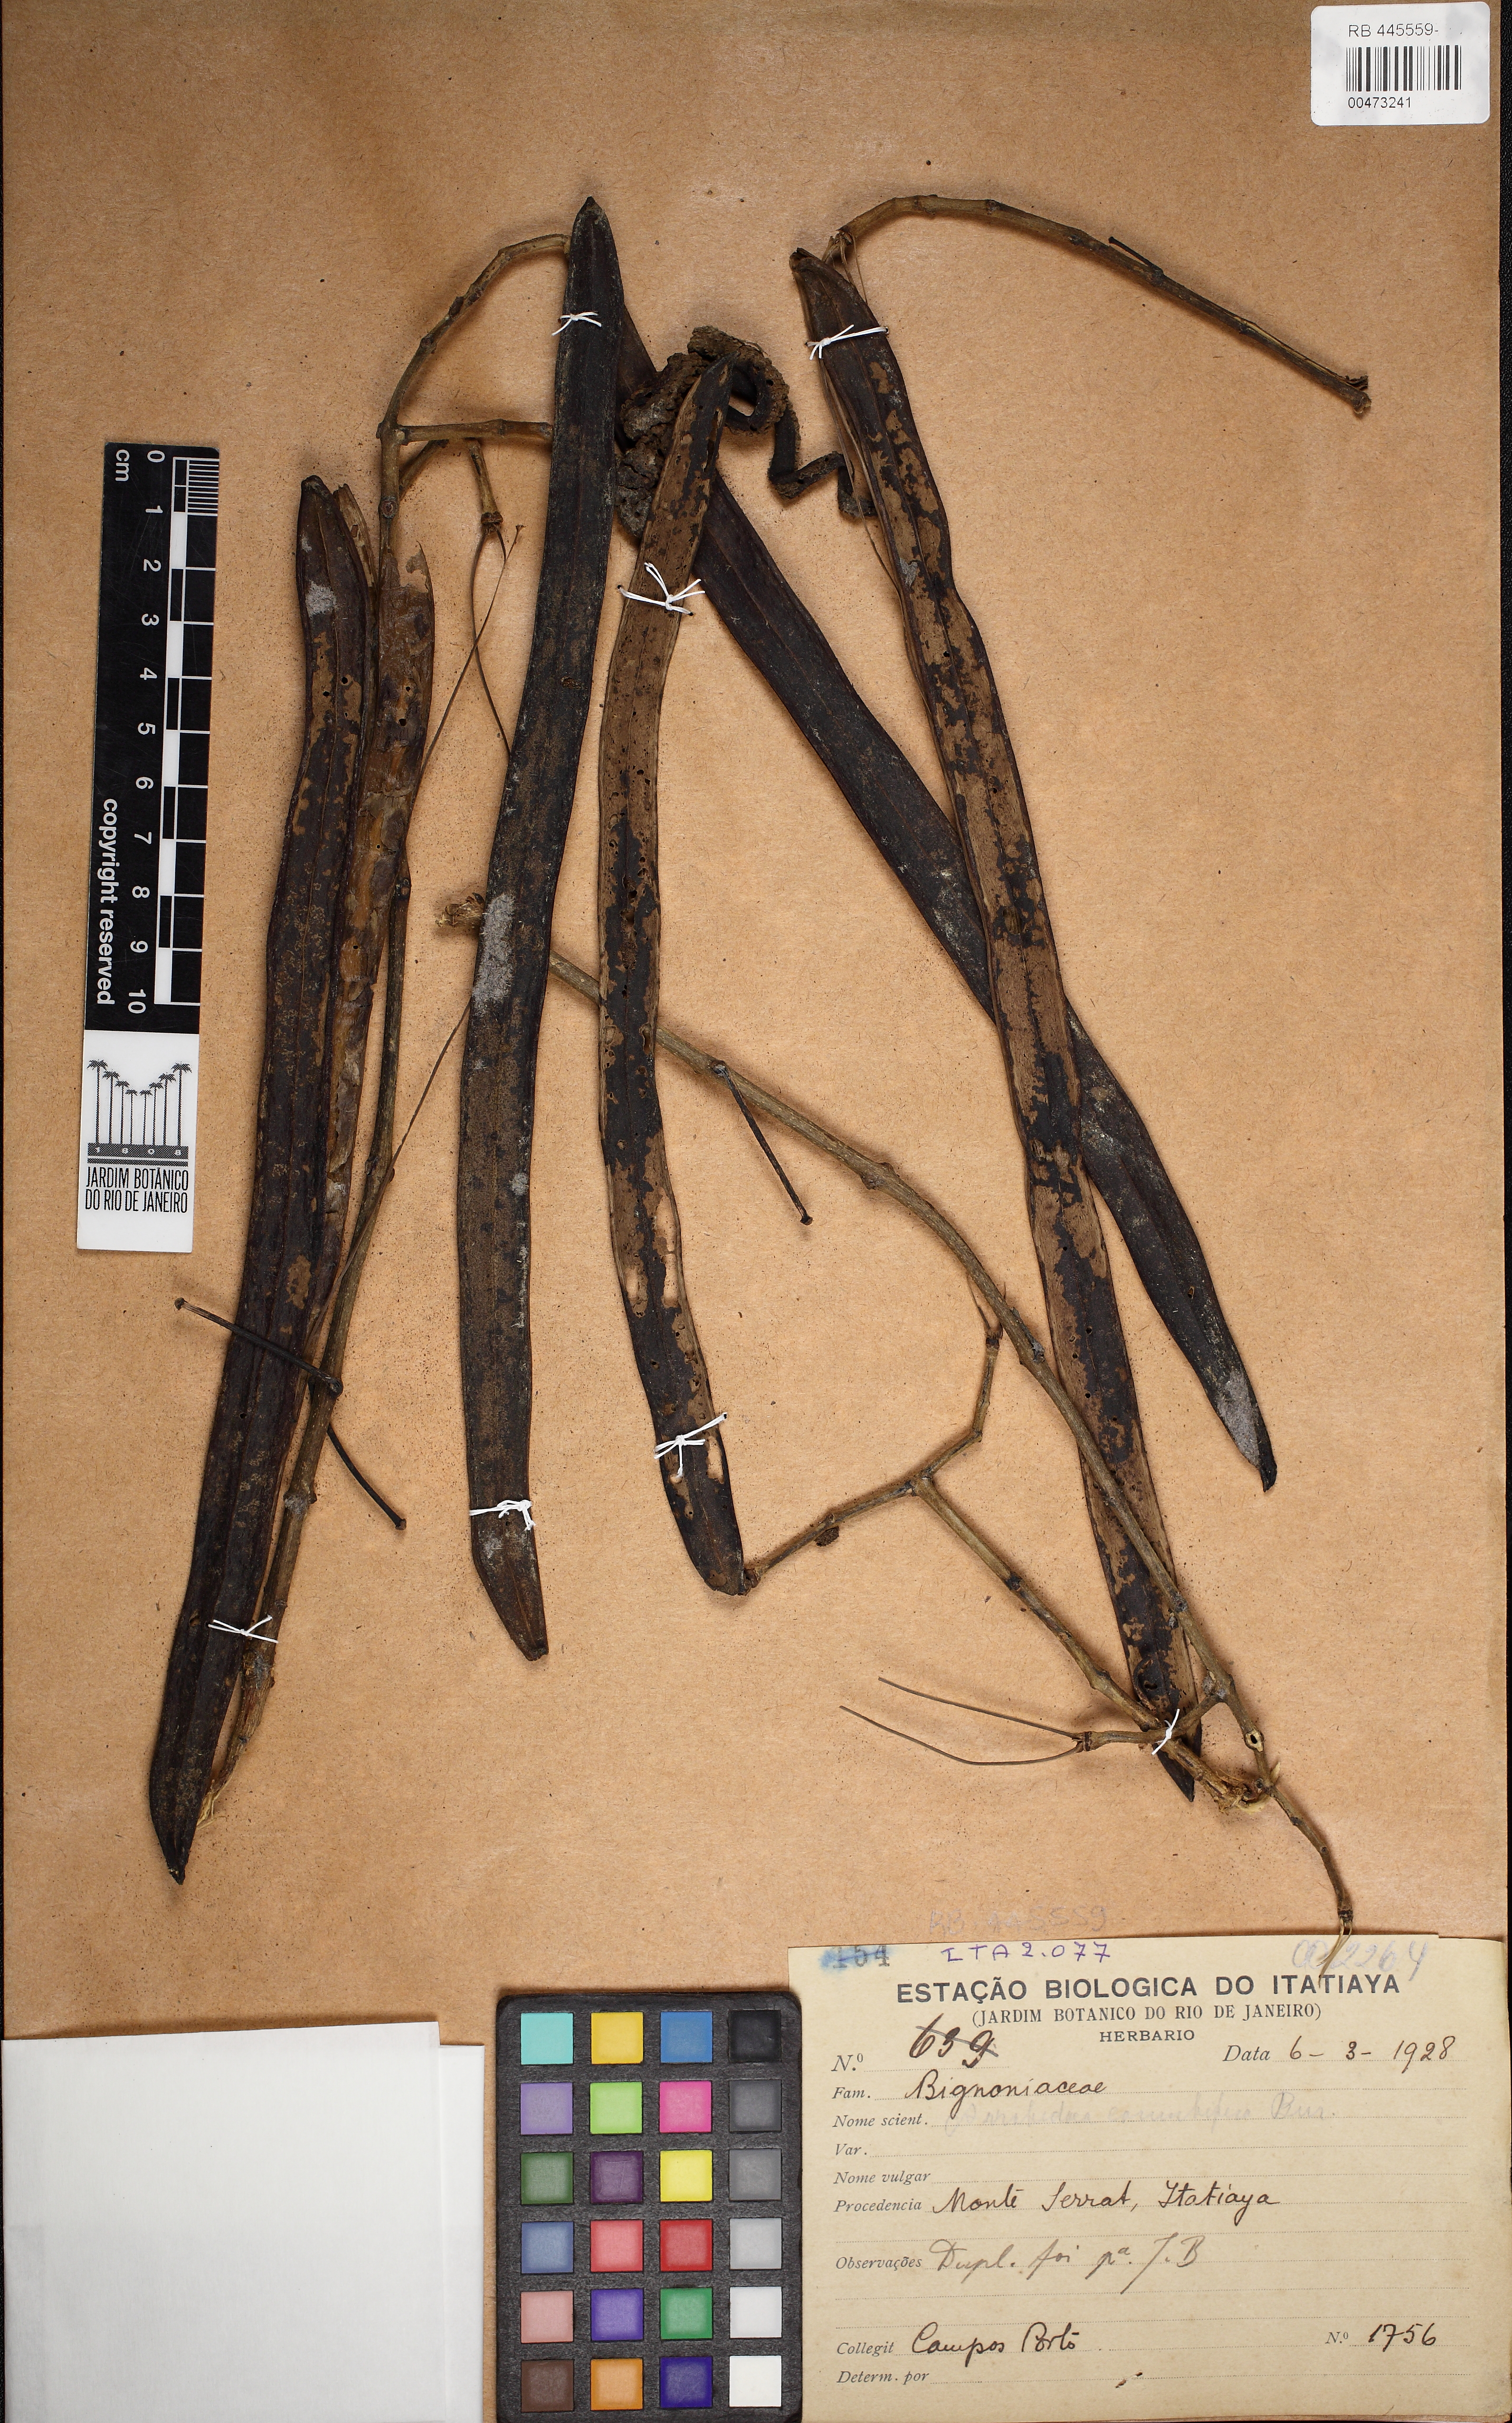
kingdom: Plantae
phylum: Tracheophyta
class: Magnoliopsida
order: Lamiales
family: Bignoniaceae
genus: Tanaecium
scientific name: Tanaecium selloi
